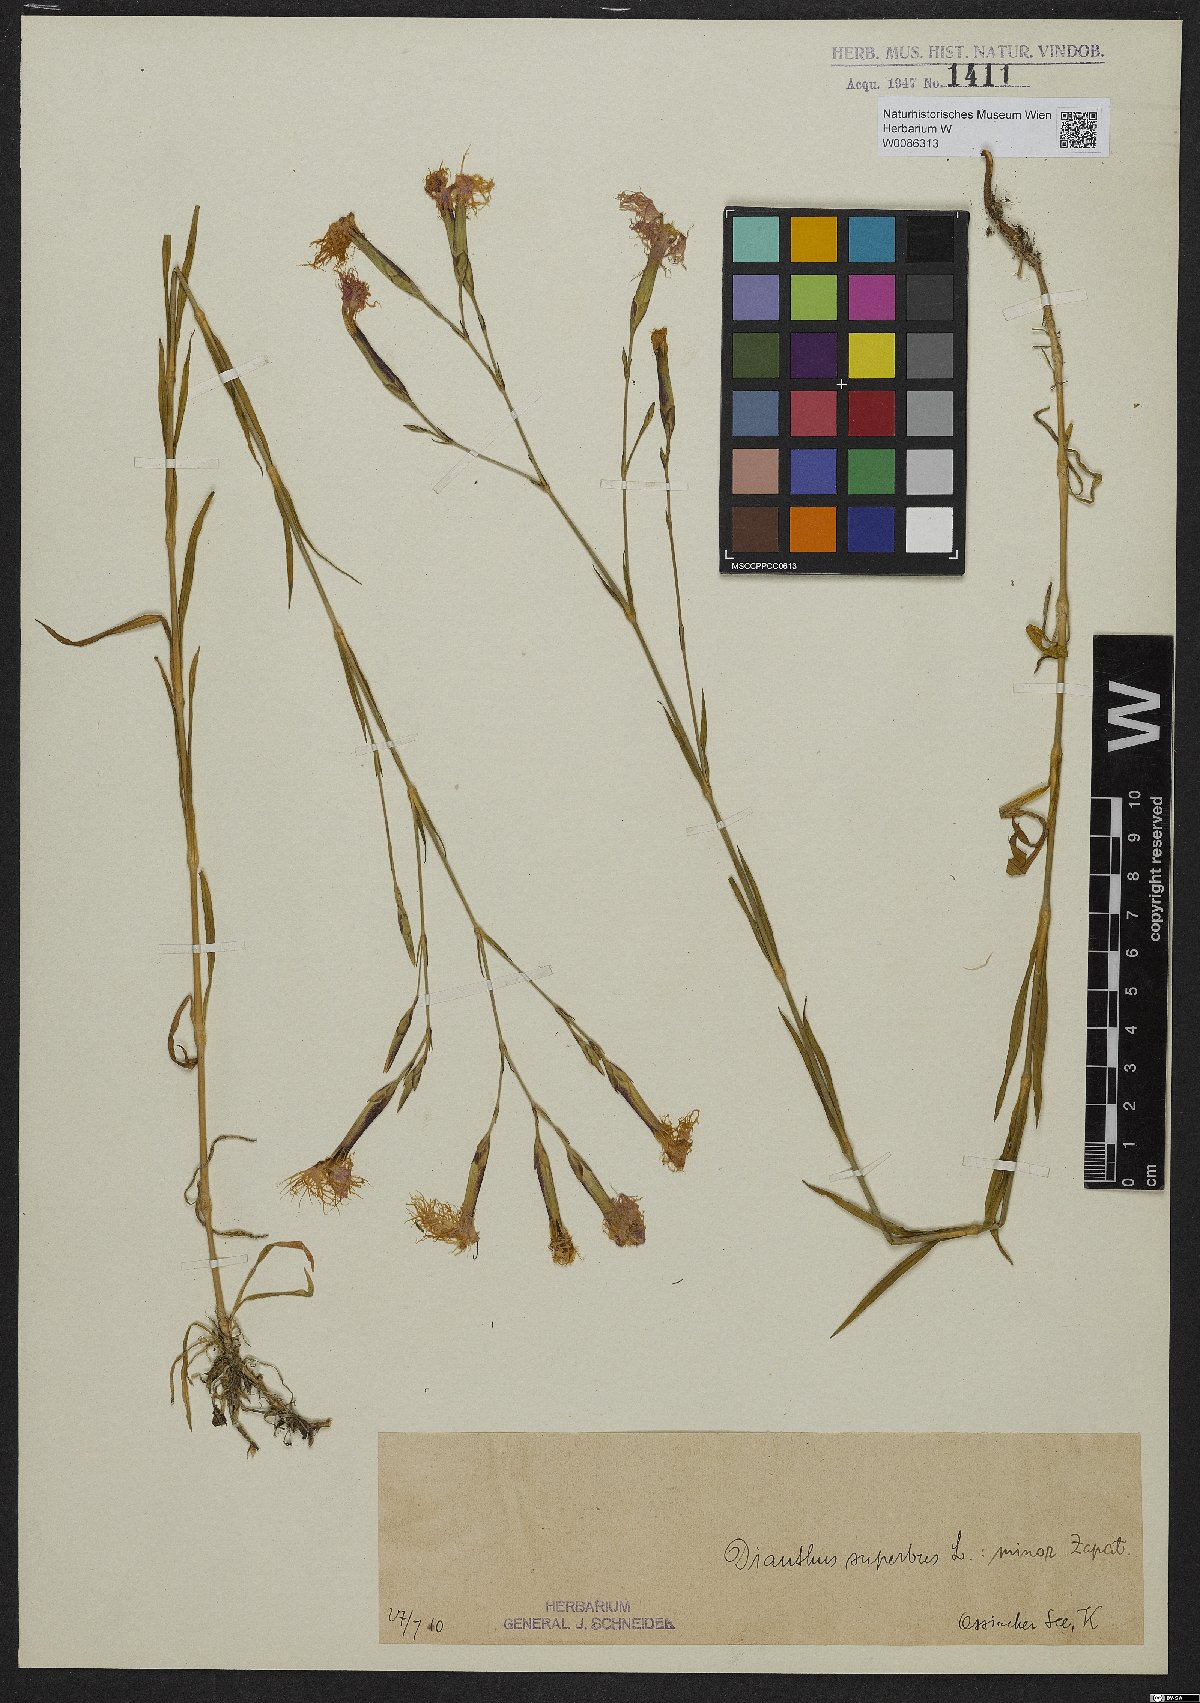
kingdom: Plantae
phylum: Tracheophyta
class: Magnoliopsida
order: Caryophyllales
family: Caryophyllaceae
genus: Dianthus
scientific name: Dianthus superbus
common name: Fringed pink
